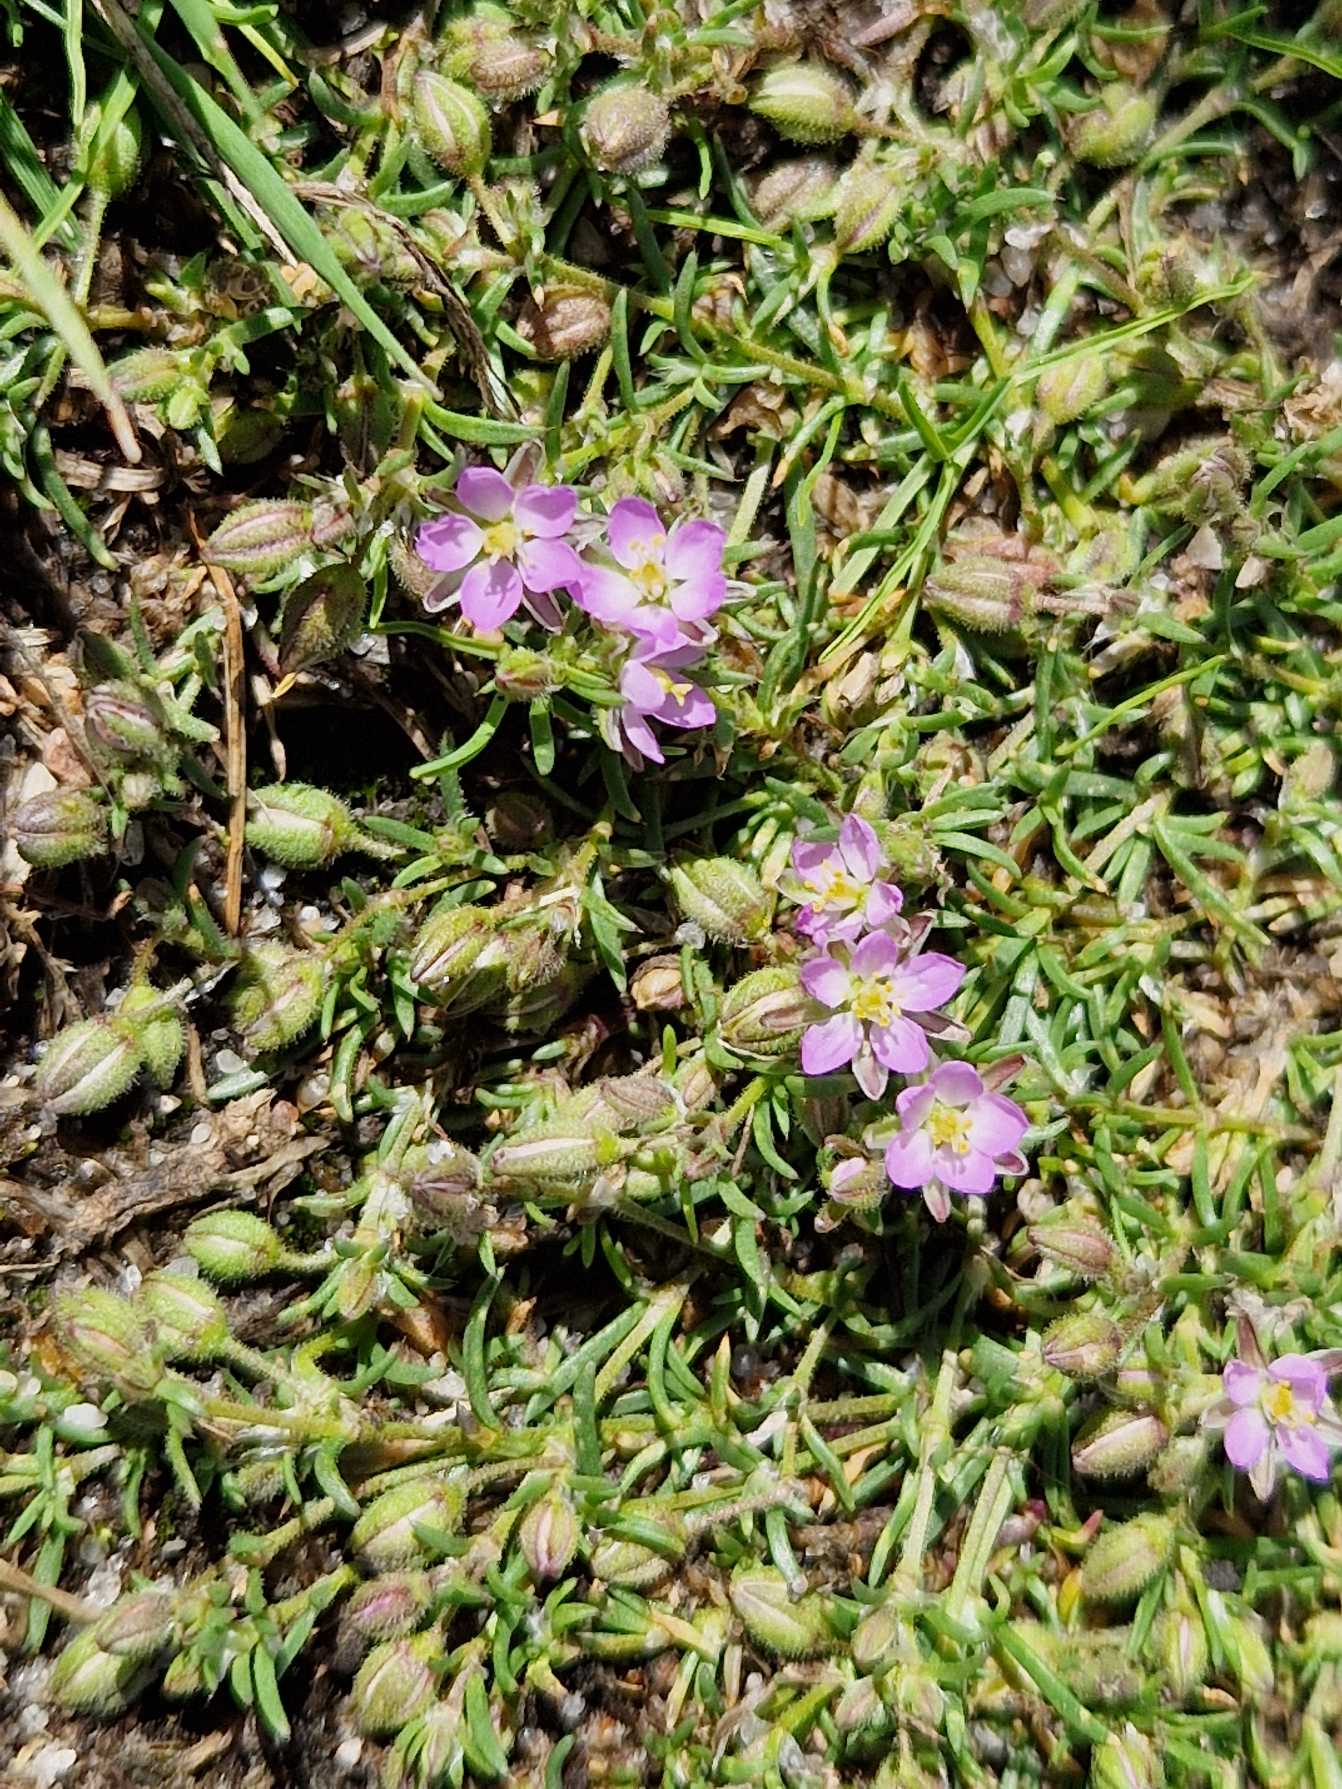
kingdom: Plantae
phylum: Tracheophyta
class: Magnoliopsida
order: Caryophyllales
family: Caryophyllaceae
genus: Spergularia
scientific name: Spergularia marina
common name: Kødet hindeknæ
